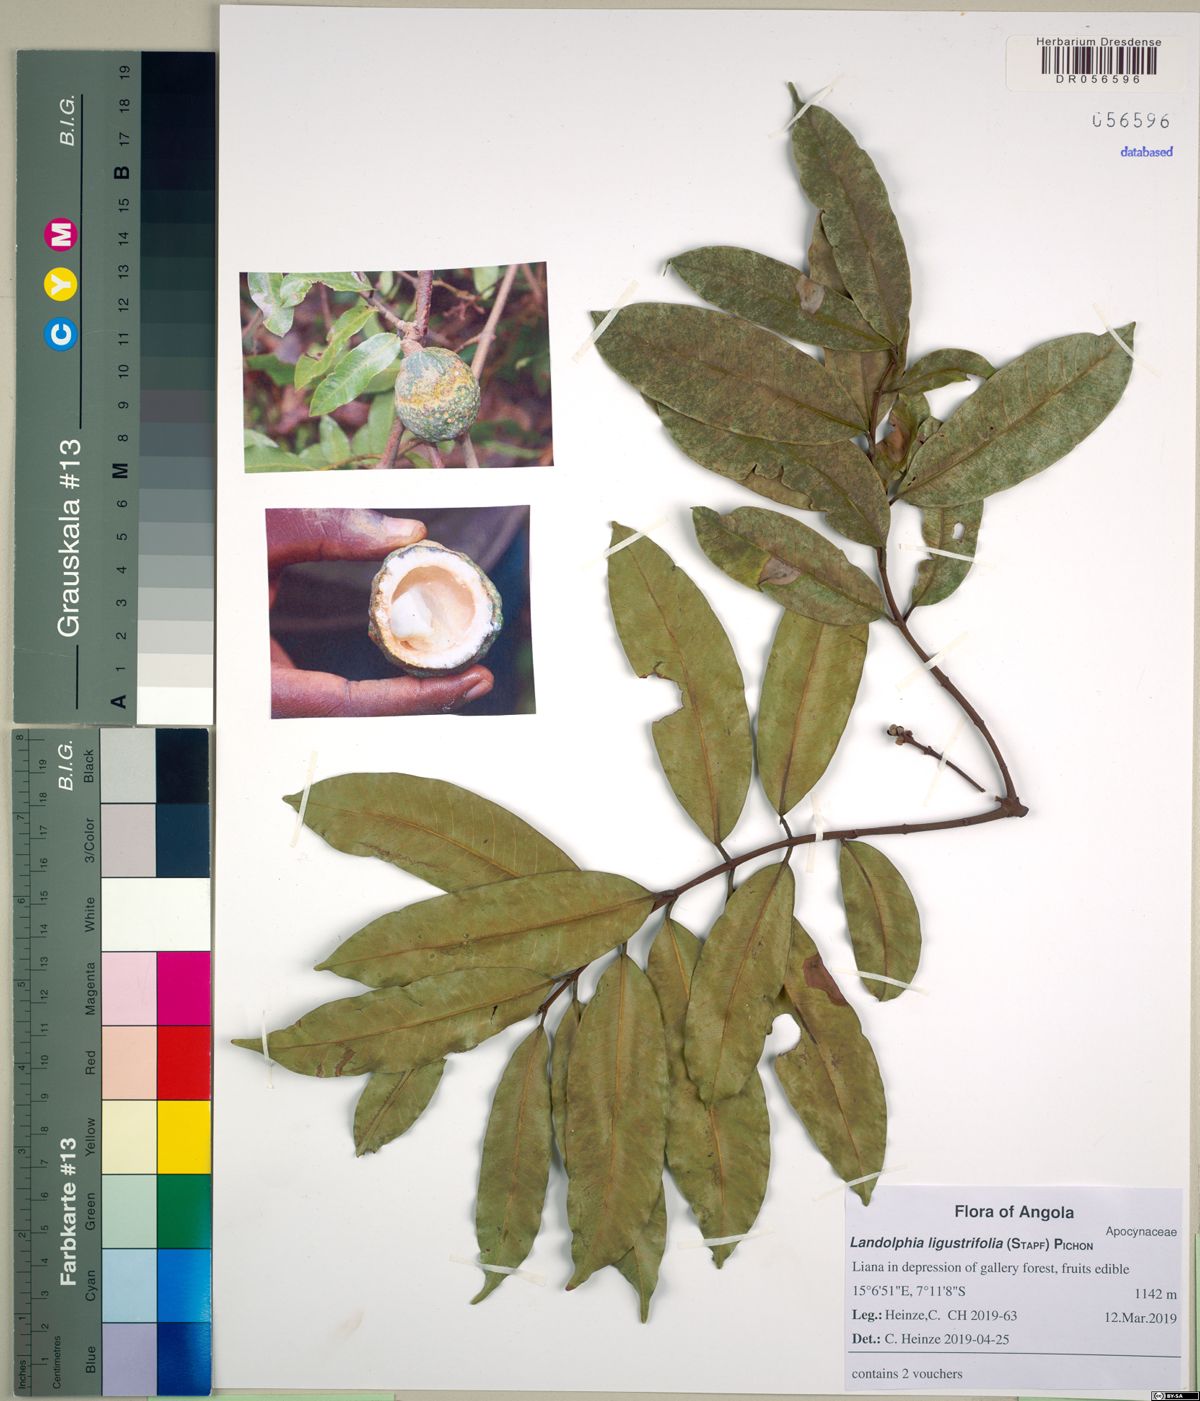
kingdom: Plantae
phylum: Tracheophyta
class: Magnoliopsida
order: Gentianales
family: Apocynaceae
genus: Landolphia
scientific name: Landolphia buchananii
